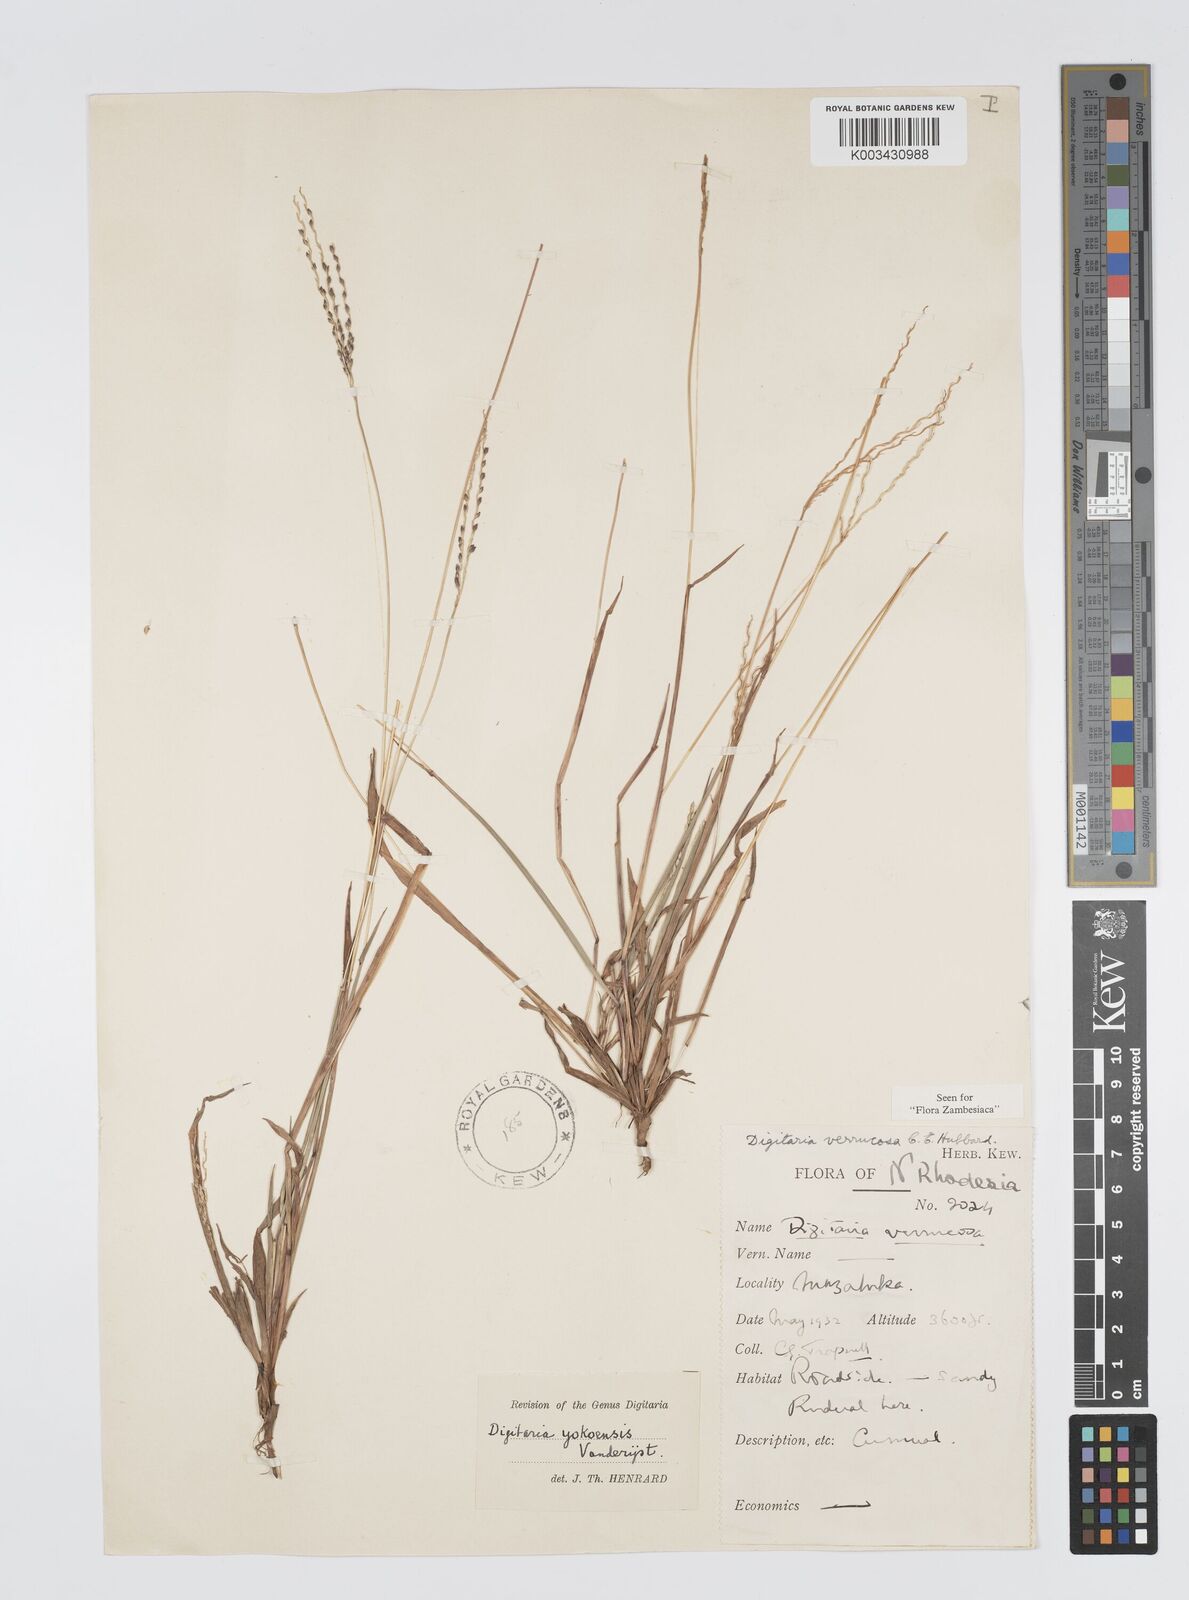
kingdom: Plantae
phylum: Tracheophyta
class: Liliopsida
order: Poales
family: Poaceae
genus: Digitaria
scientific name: Digitaria angolensis
